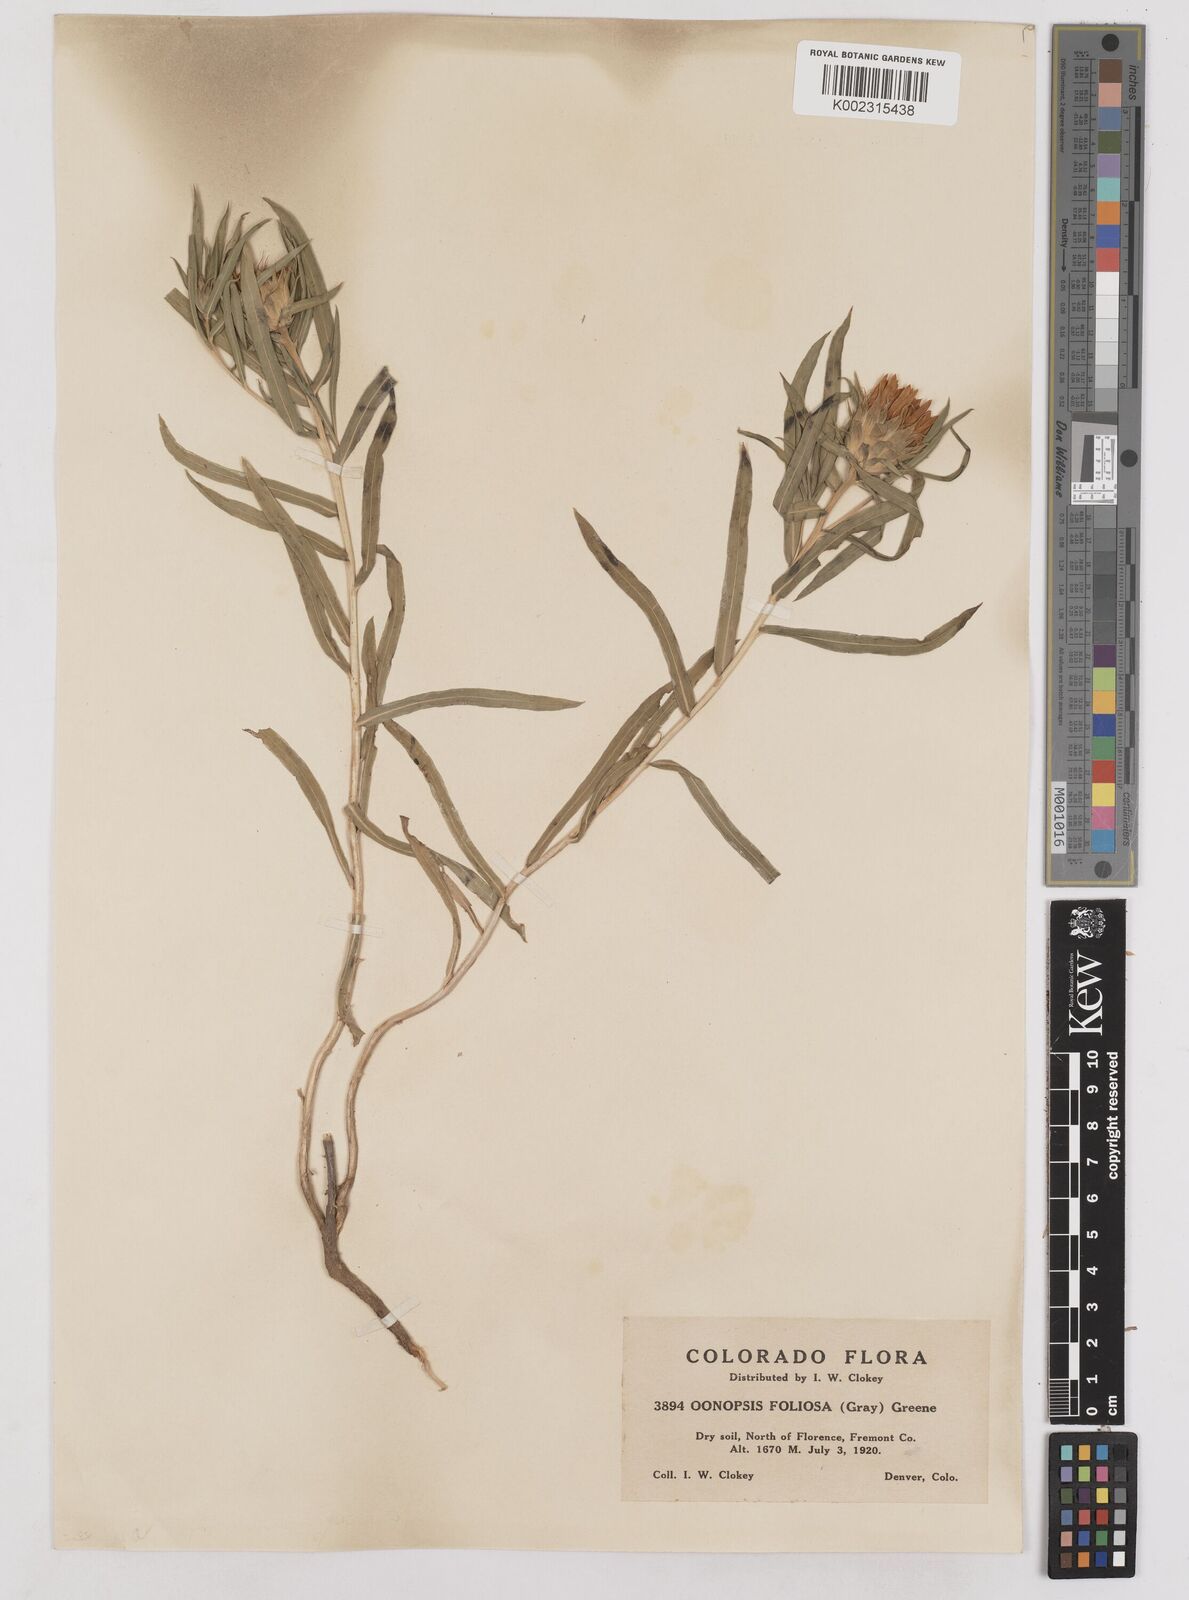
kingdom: Plantae
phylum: Tracheophyta
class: Magnoliopsida
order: Asterales
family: Asteraceae
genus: Oonopsis
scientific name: Oonopsis foliosa
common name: Leafy goldenweed
